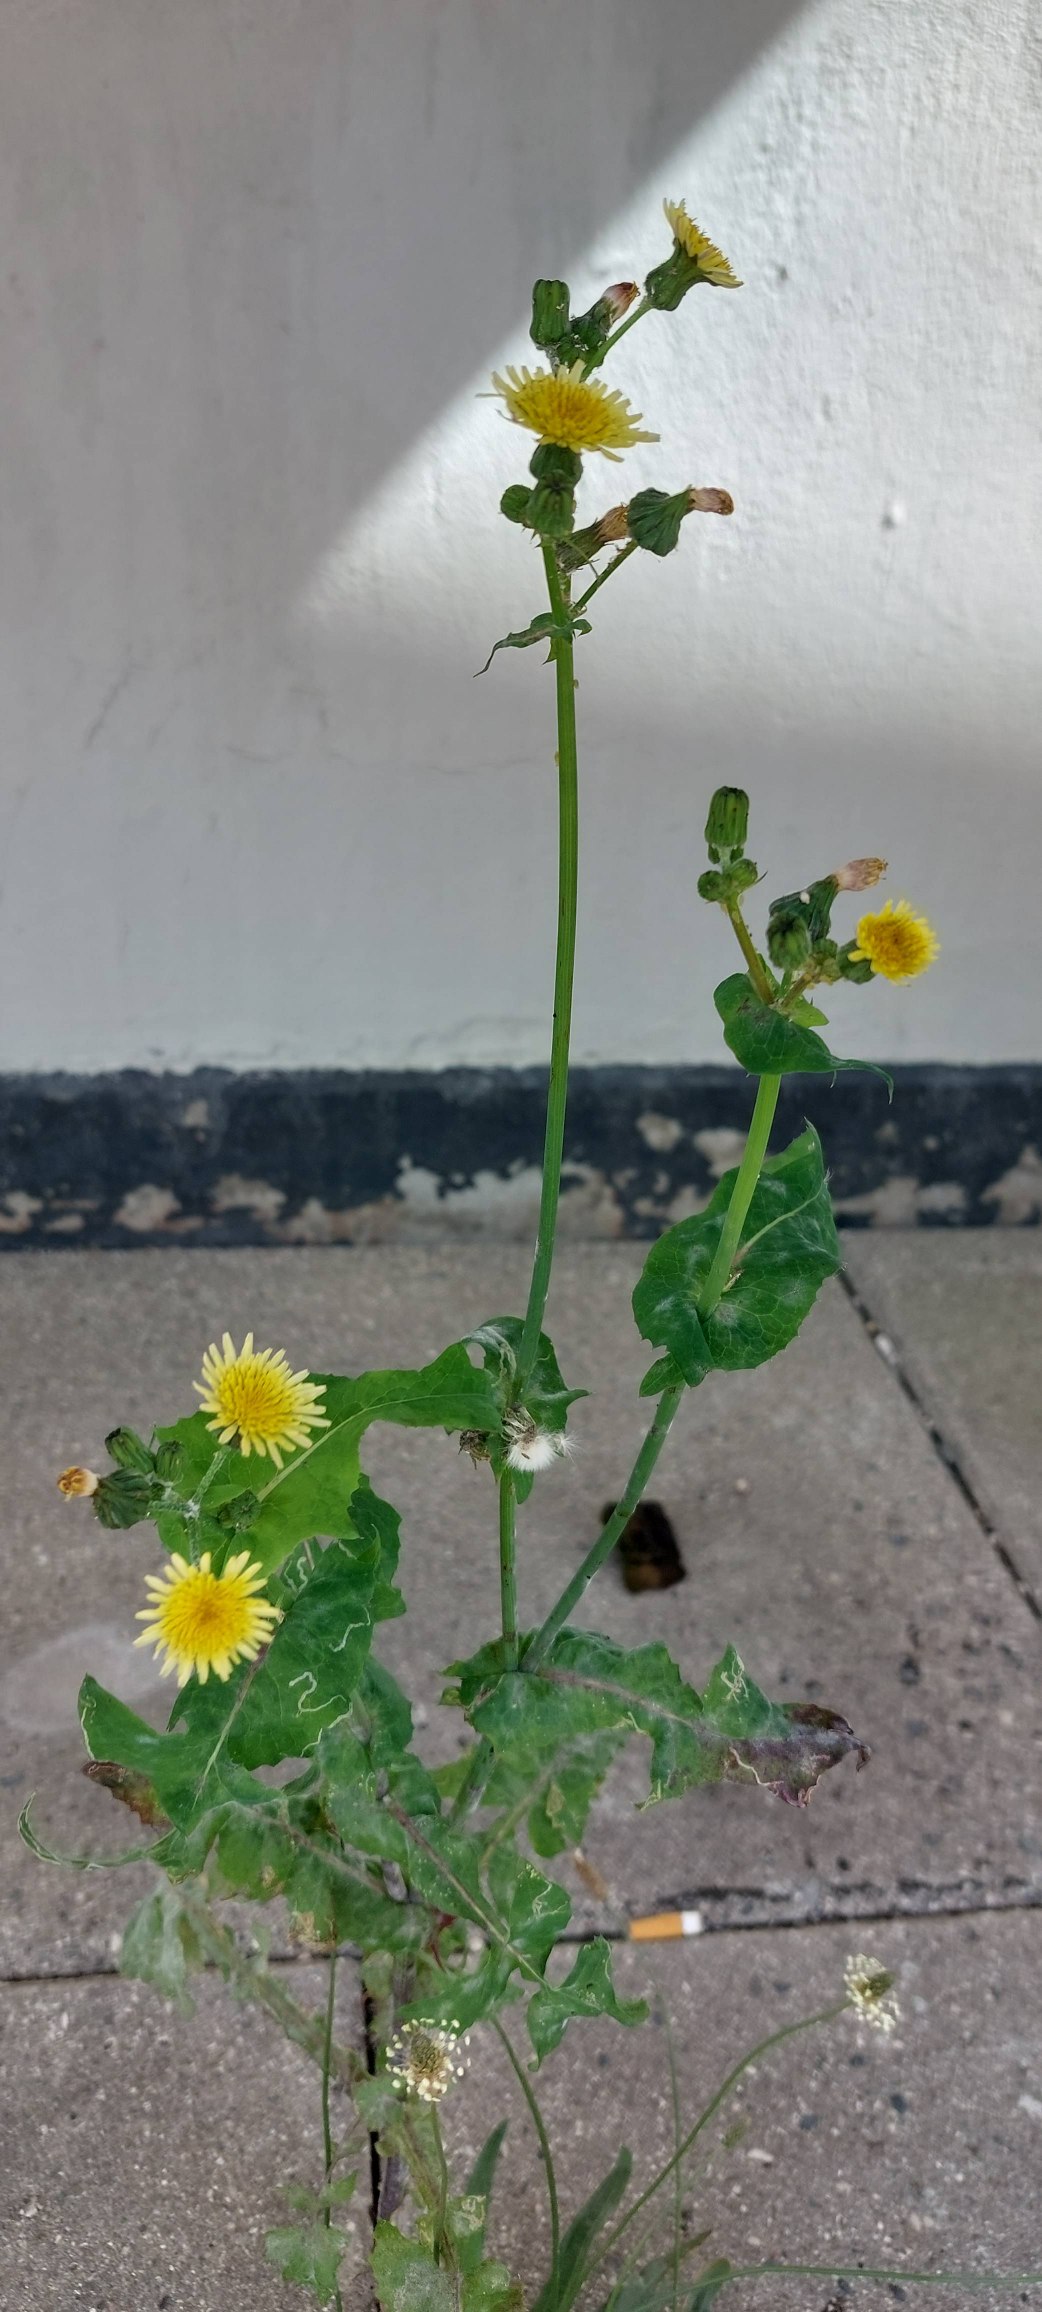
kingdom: Plantae
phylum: Tracheophyta
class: Magnoliopsida
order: Asterales
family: Asteraceae
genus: Sonchus
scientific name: Sonchus oleraceus
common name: Almindelig svinemælk
